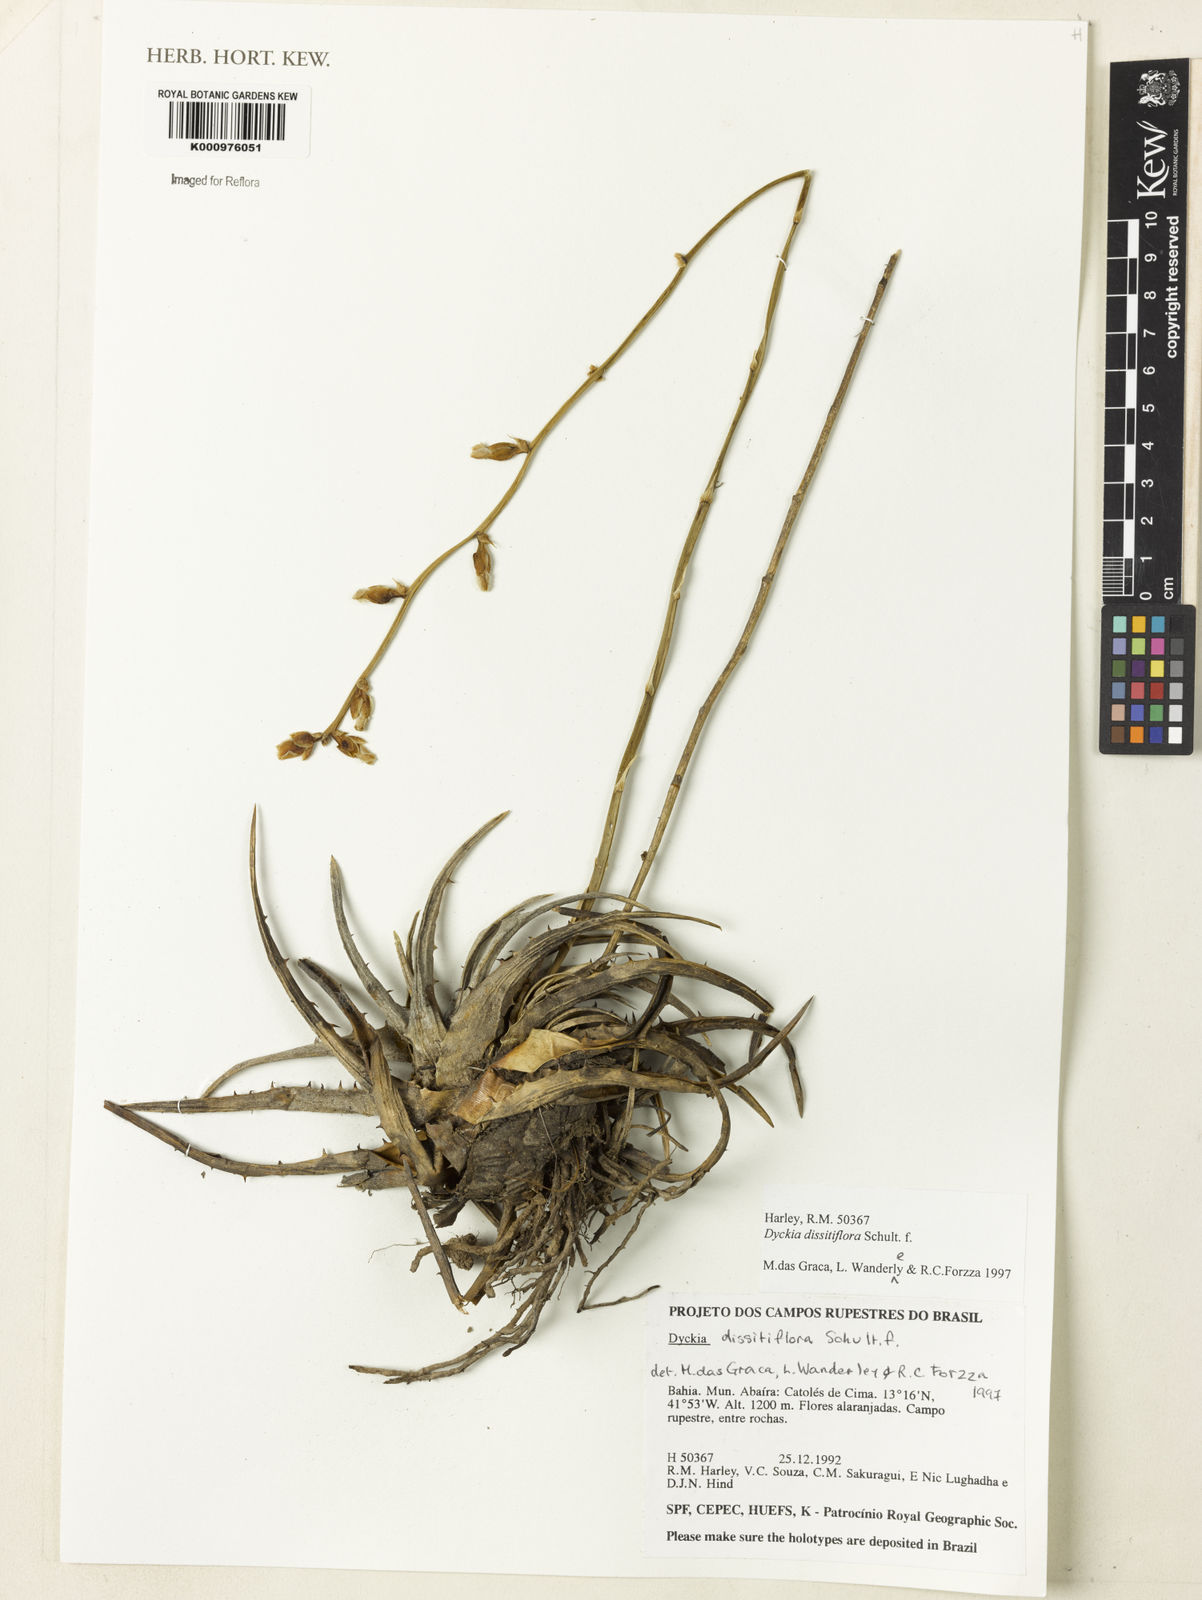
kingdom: Plantae
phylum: Tracheophyta
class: Liliopsida
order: Poales
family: Bromeliaceae
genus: Dyckia
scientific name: Dyckia dissitiflora
